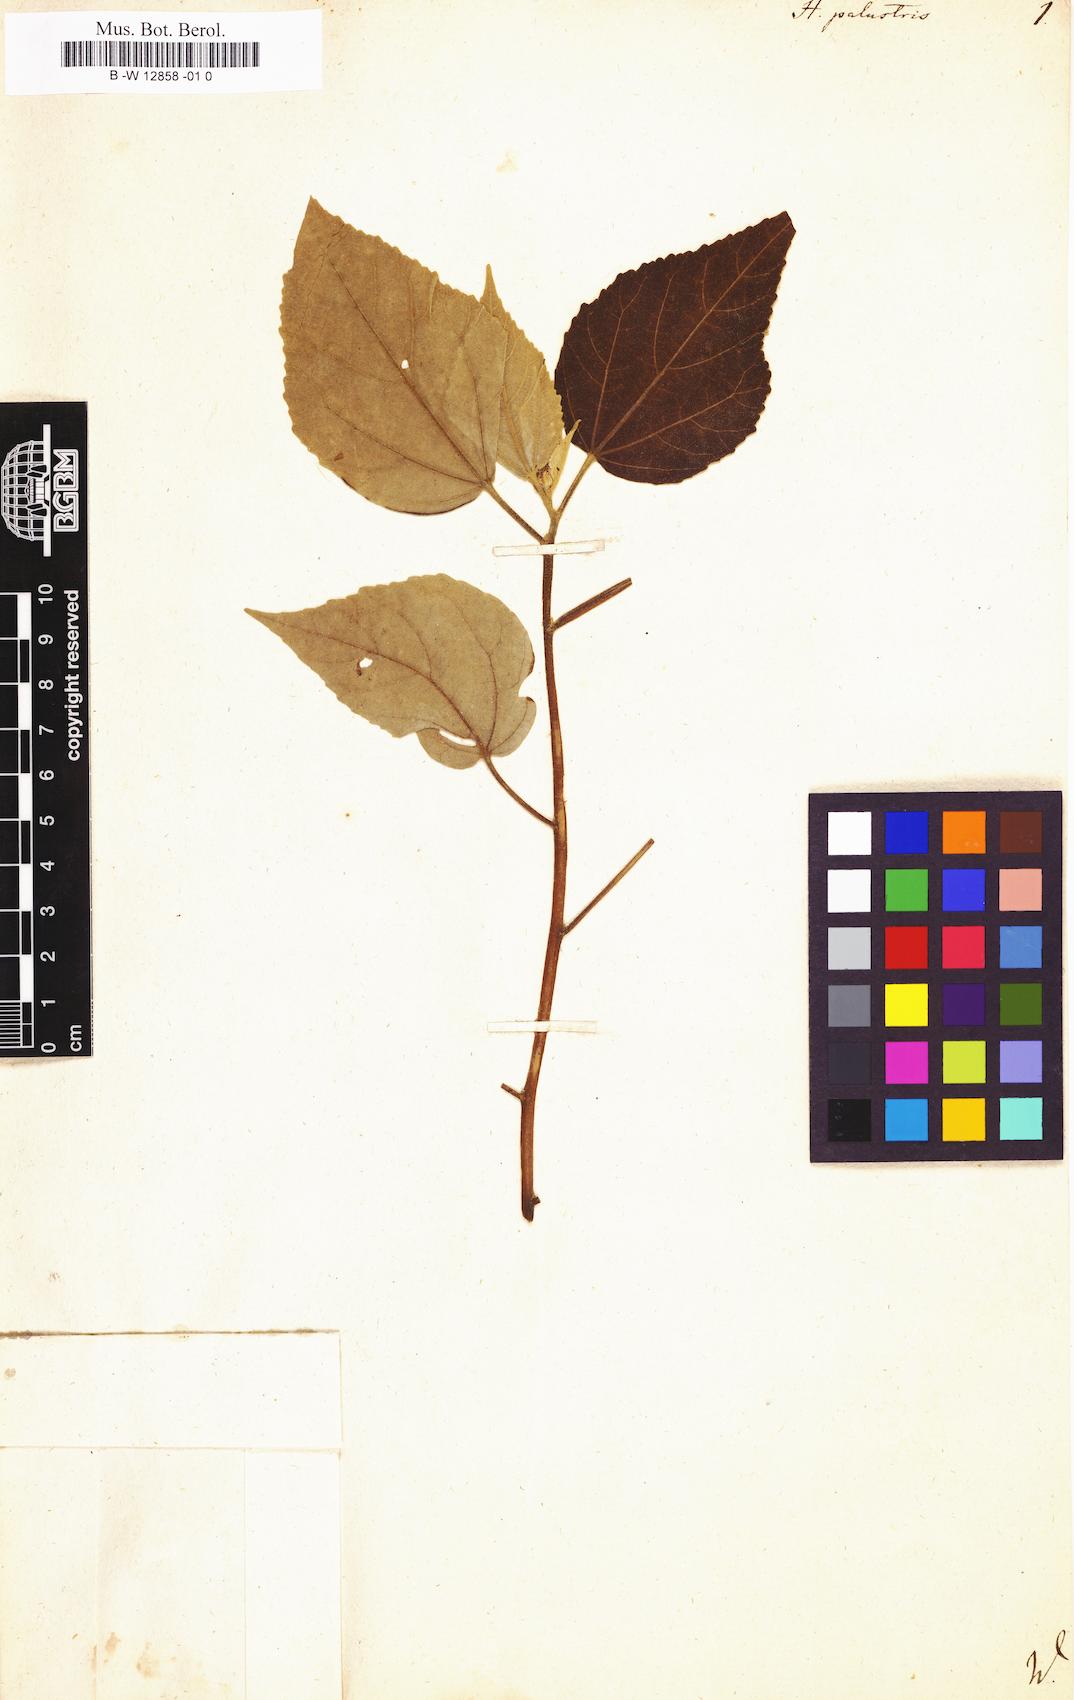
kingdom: Plantae
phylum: Tracheophyta
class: Magnoliopsida
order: Malvales
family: Malvaceae
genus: Hibiscus
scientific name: Hibiscus moscheutos
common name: Common rose-mallow
